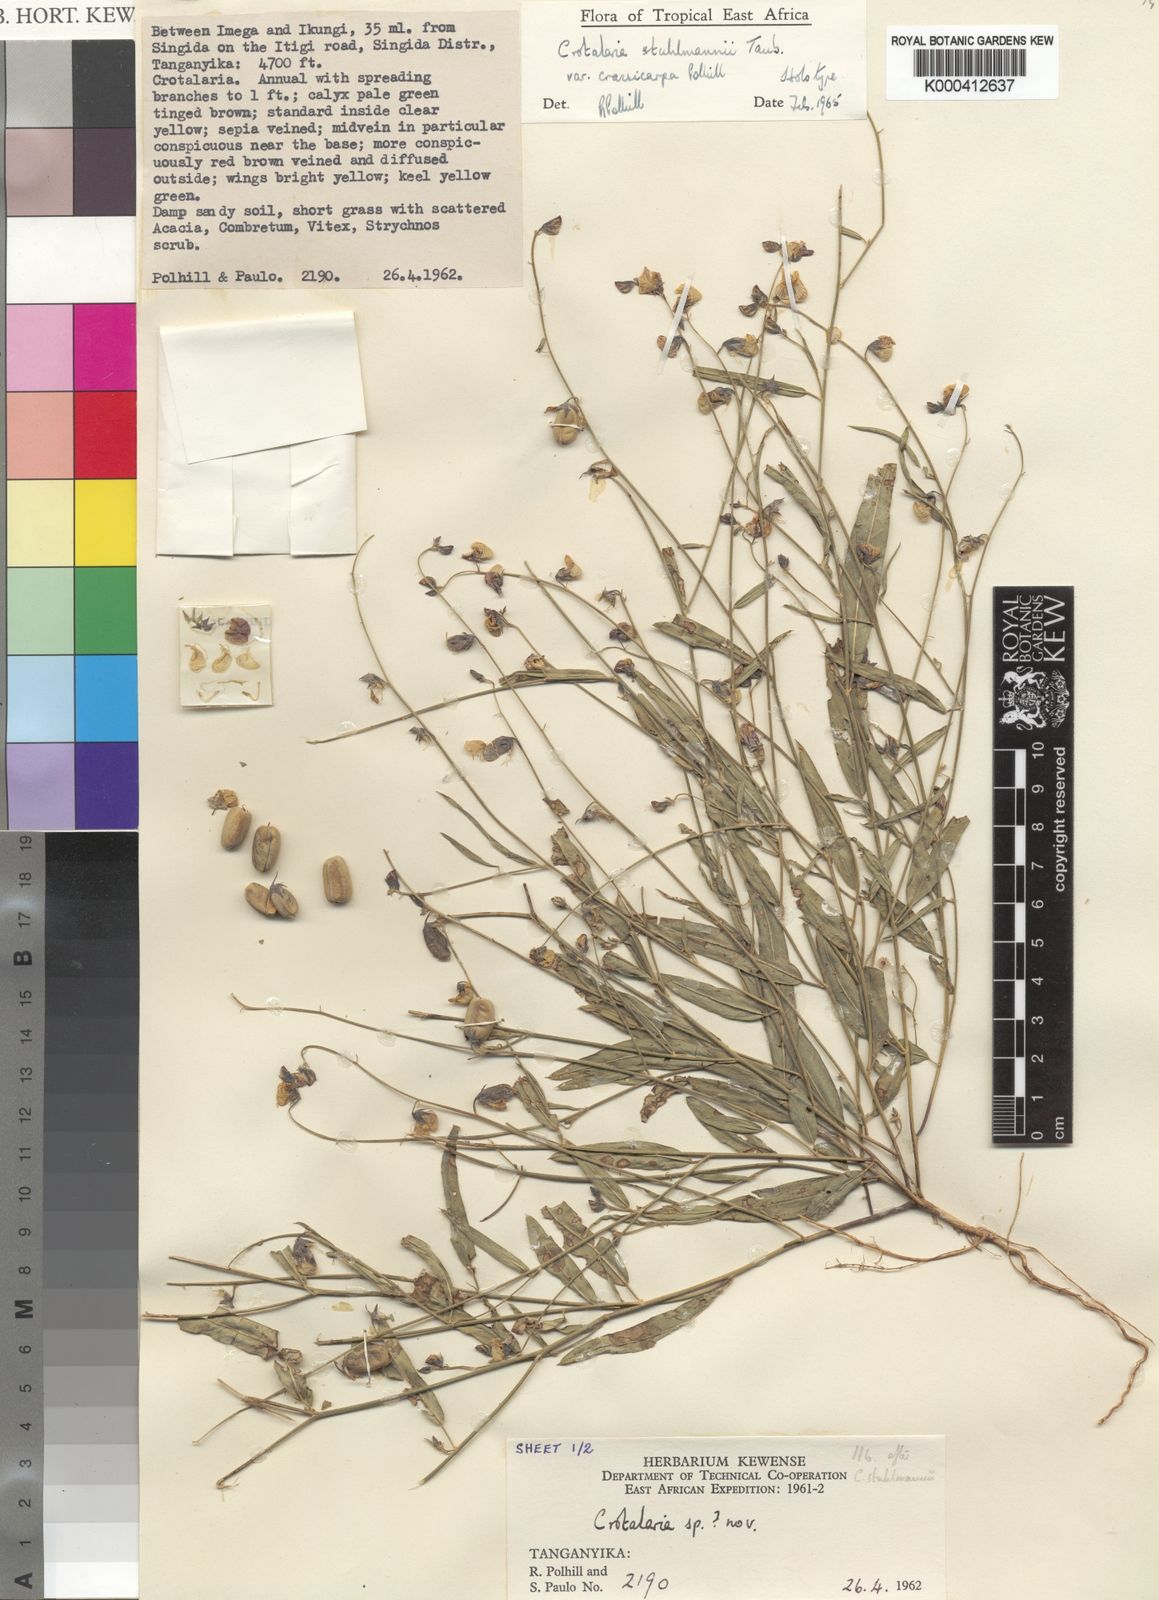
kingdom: Plantae
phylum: Tracheophyta
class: Magnoliopsida
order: Fabales
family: Fabaceae
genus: Crotalaria
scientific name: Crotalaria stuhlmannii
